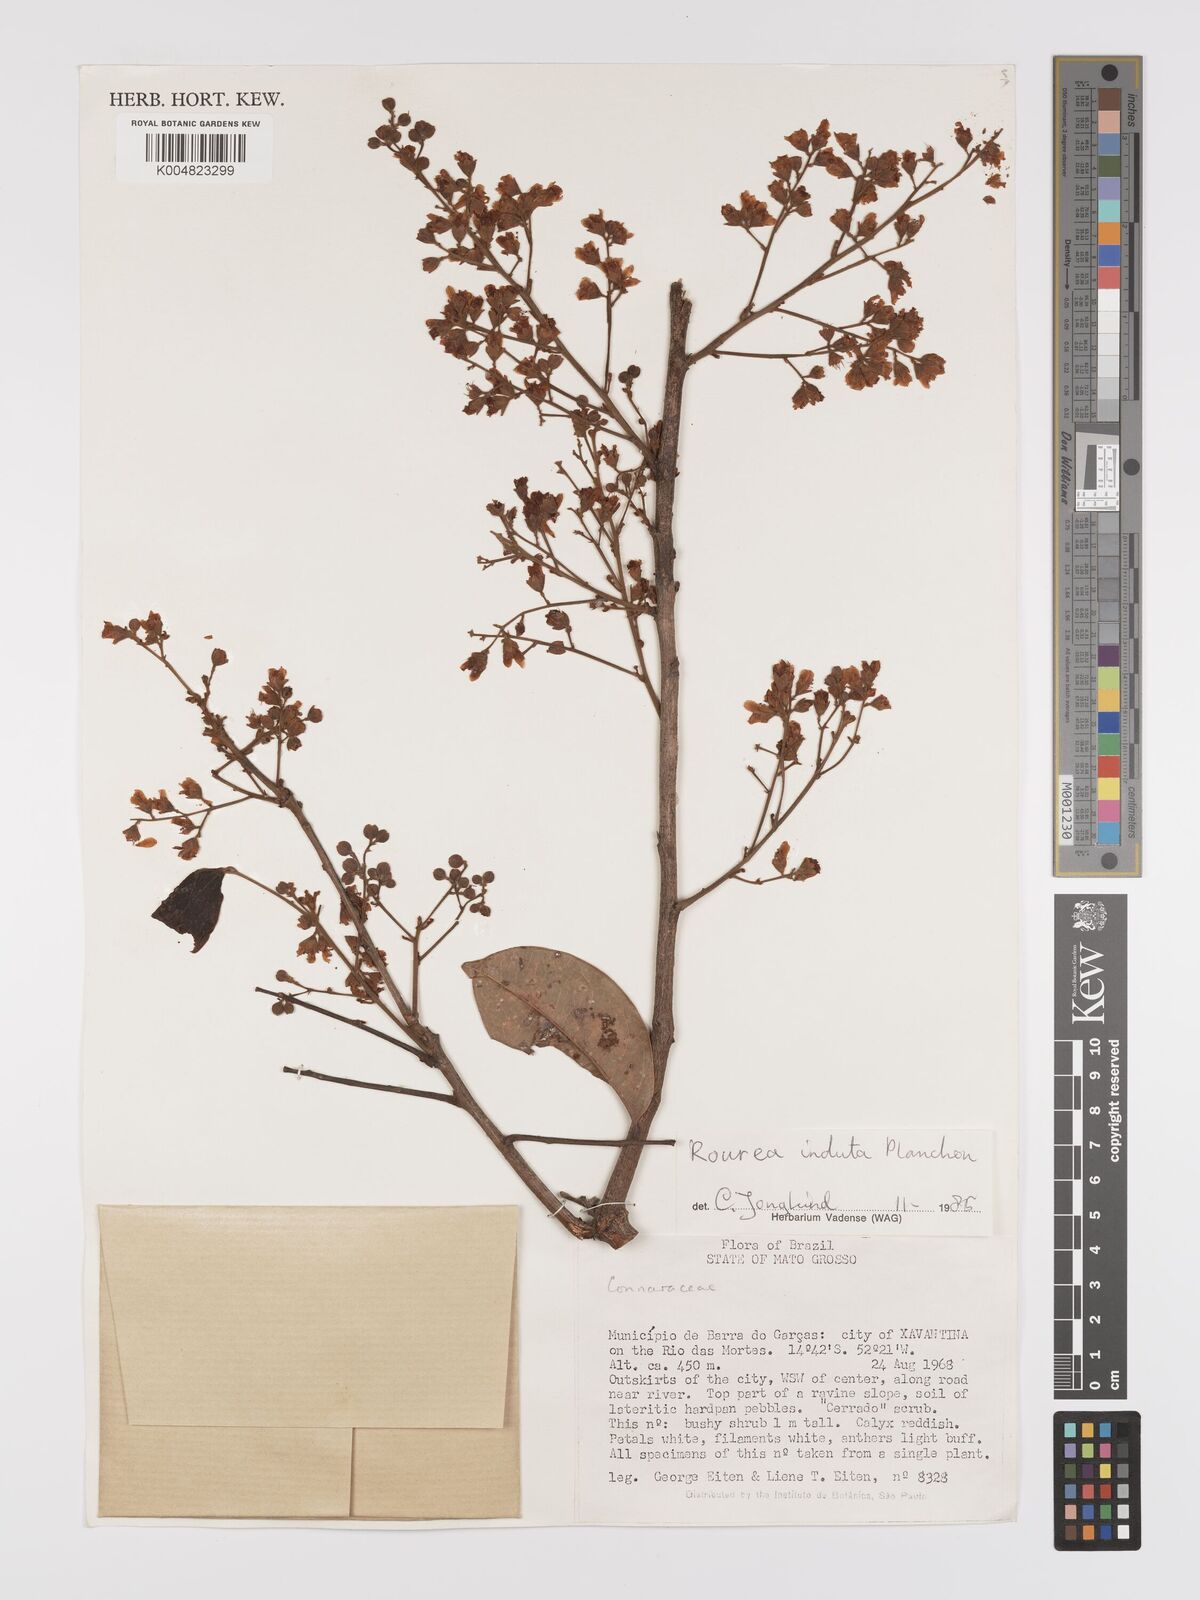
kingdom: Plantae
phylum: Tracheophyta
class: Magnoliopsida
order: Oxalidales
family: Connaraceae
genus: Rourea
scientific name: Rourea induta
